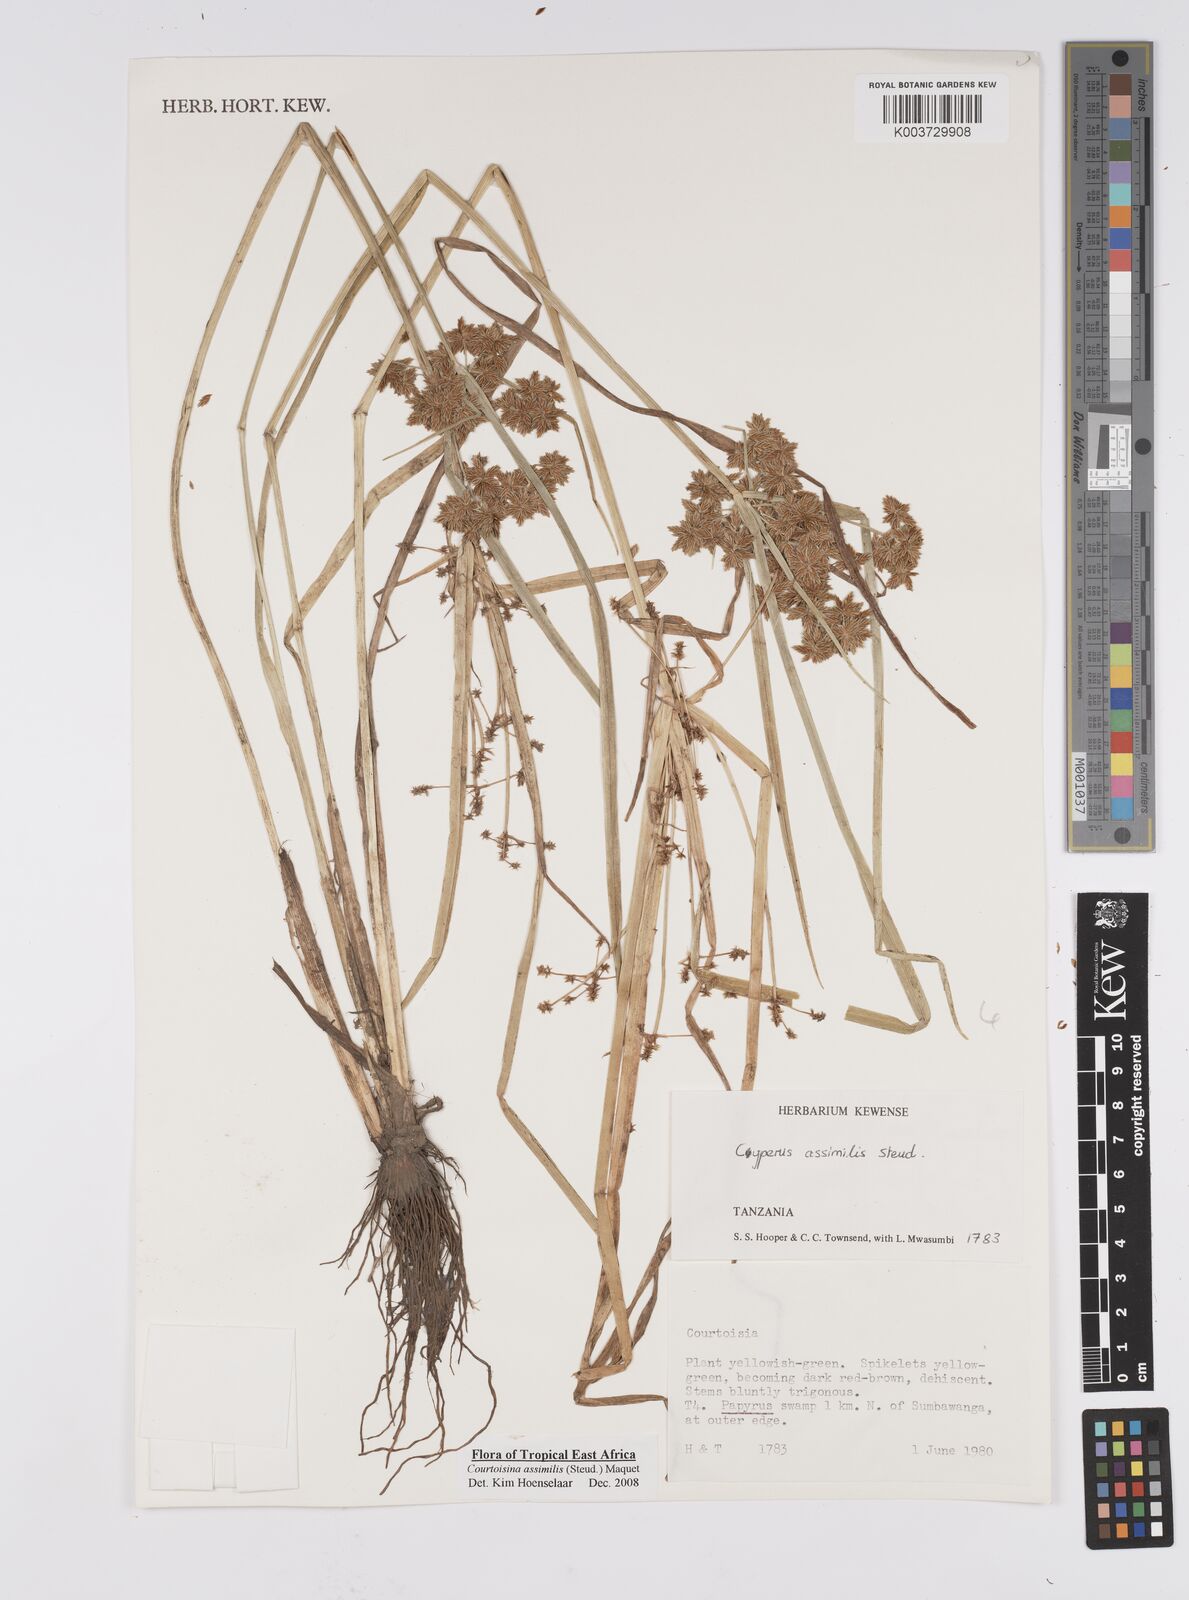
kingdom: Plantae
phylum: Tracheophyta
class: Liliopsida
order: Poales
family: Cyperaceae
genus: Cyperus
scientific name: Cyperus assimilis
